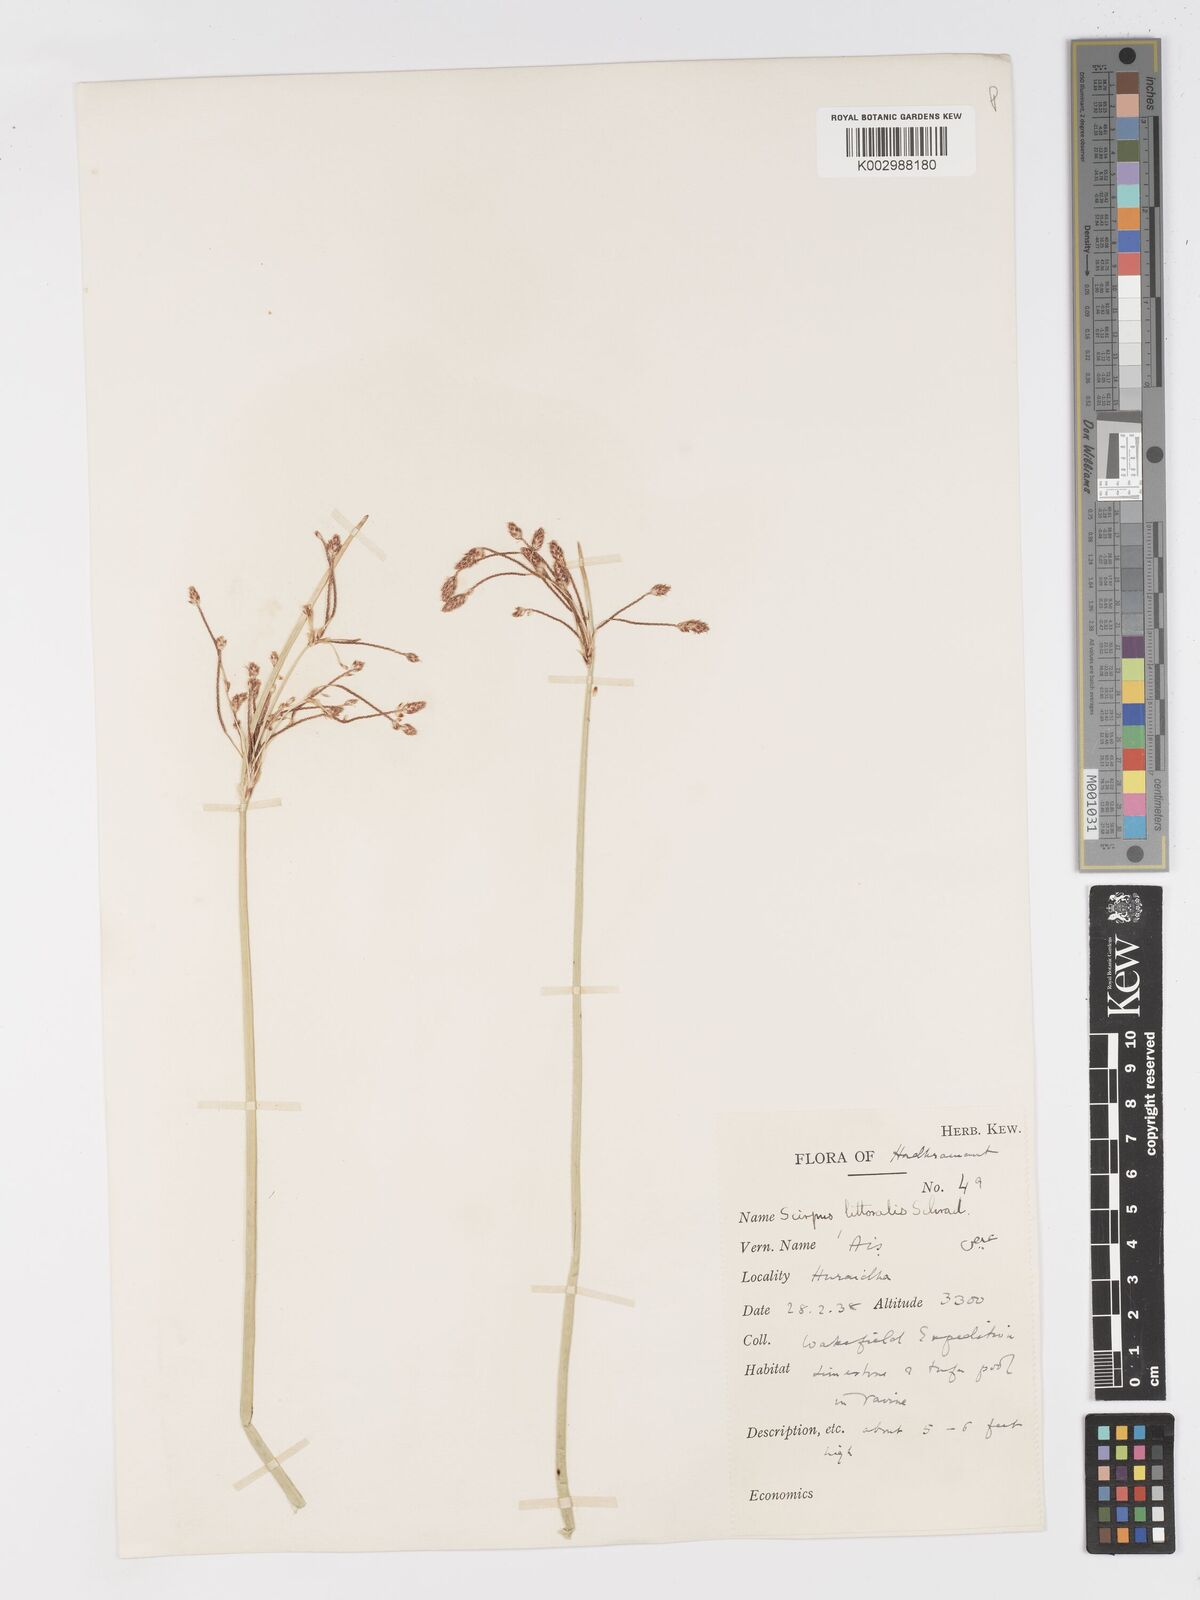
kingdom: Plantae
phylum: Tracheophyta
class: Liliopsida
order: Poales
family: Cyperaceae
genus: Schoenoplectus
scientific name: Schoenoplectus litoralis
